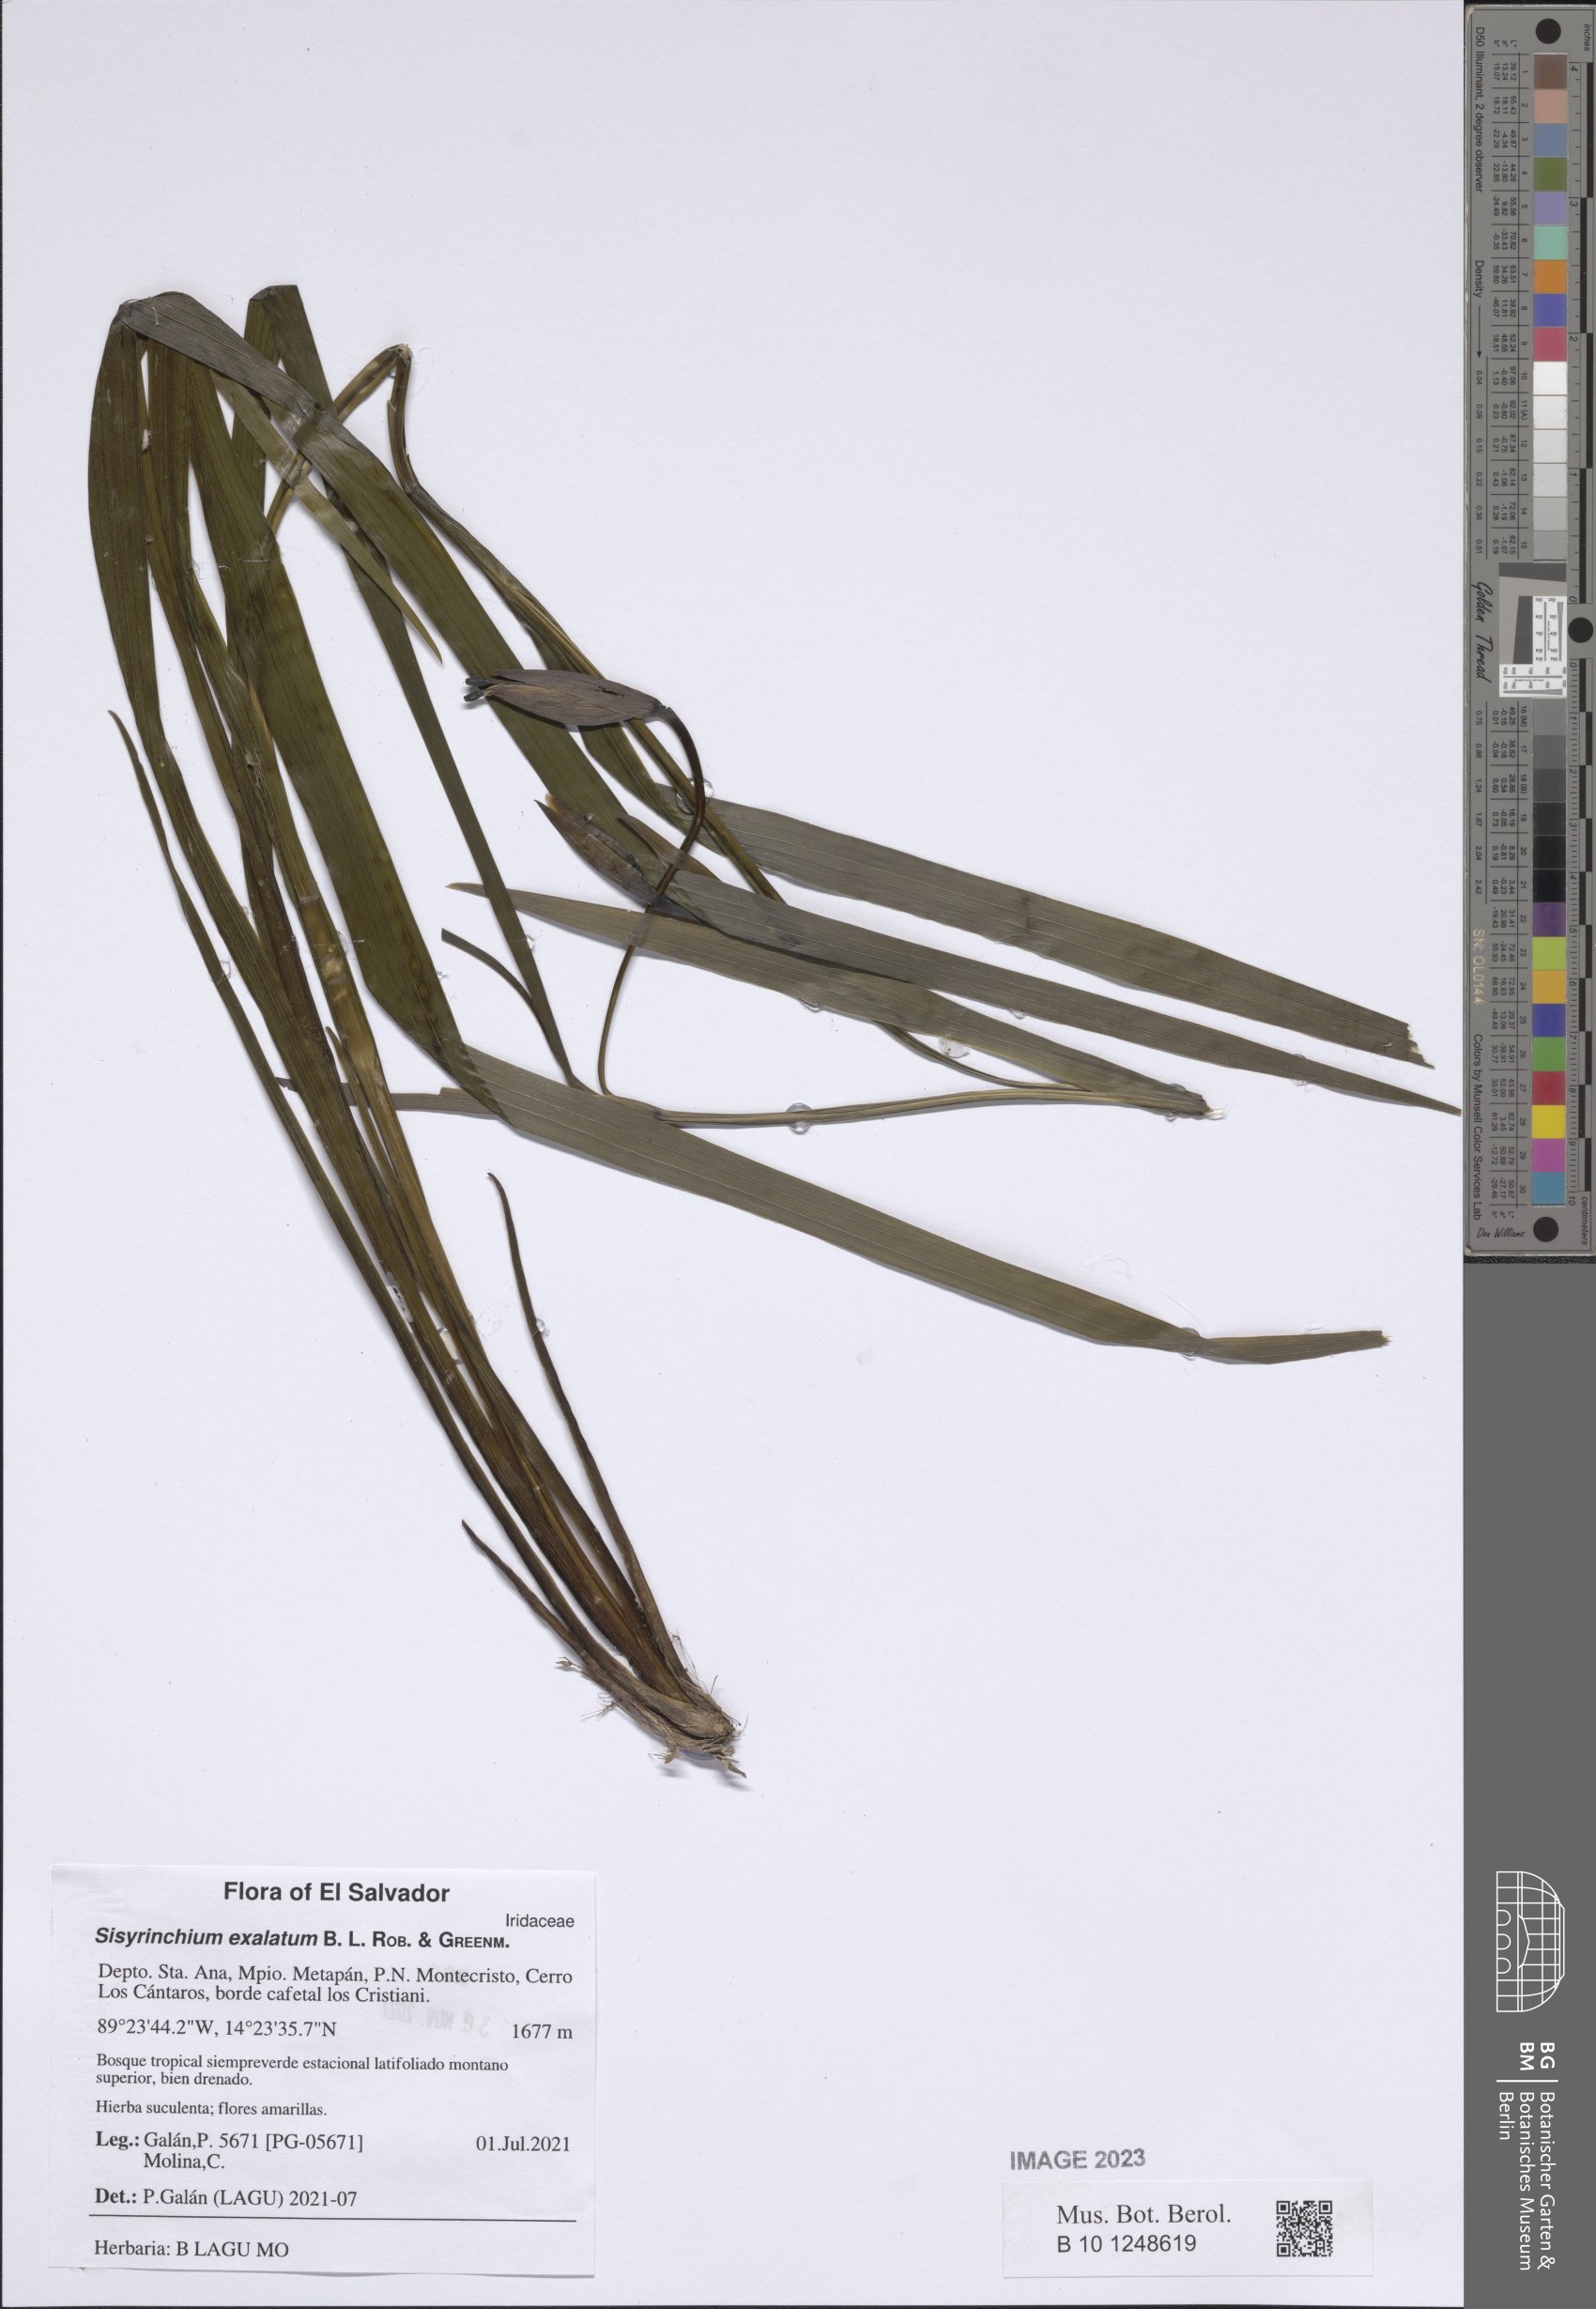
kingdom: Plantae
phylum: Tracheophyta
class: Liliopsida
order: Asparagales
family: Iridaceae
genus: Sisyrinchium
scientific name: Sisyrinchium exalatum
